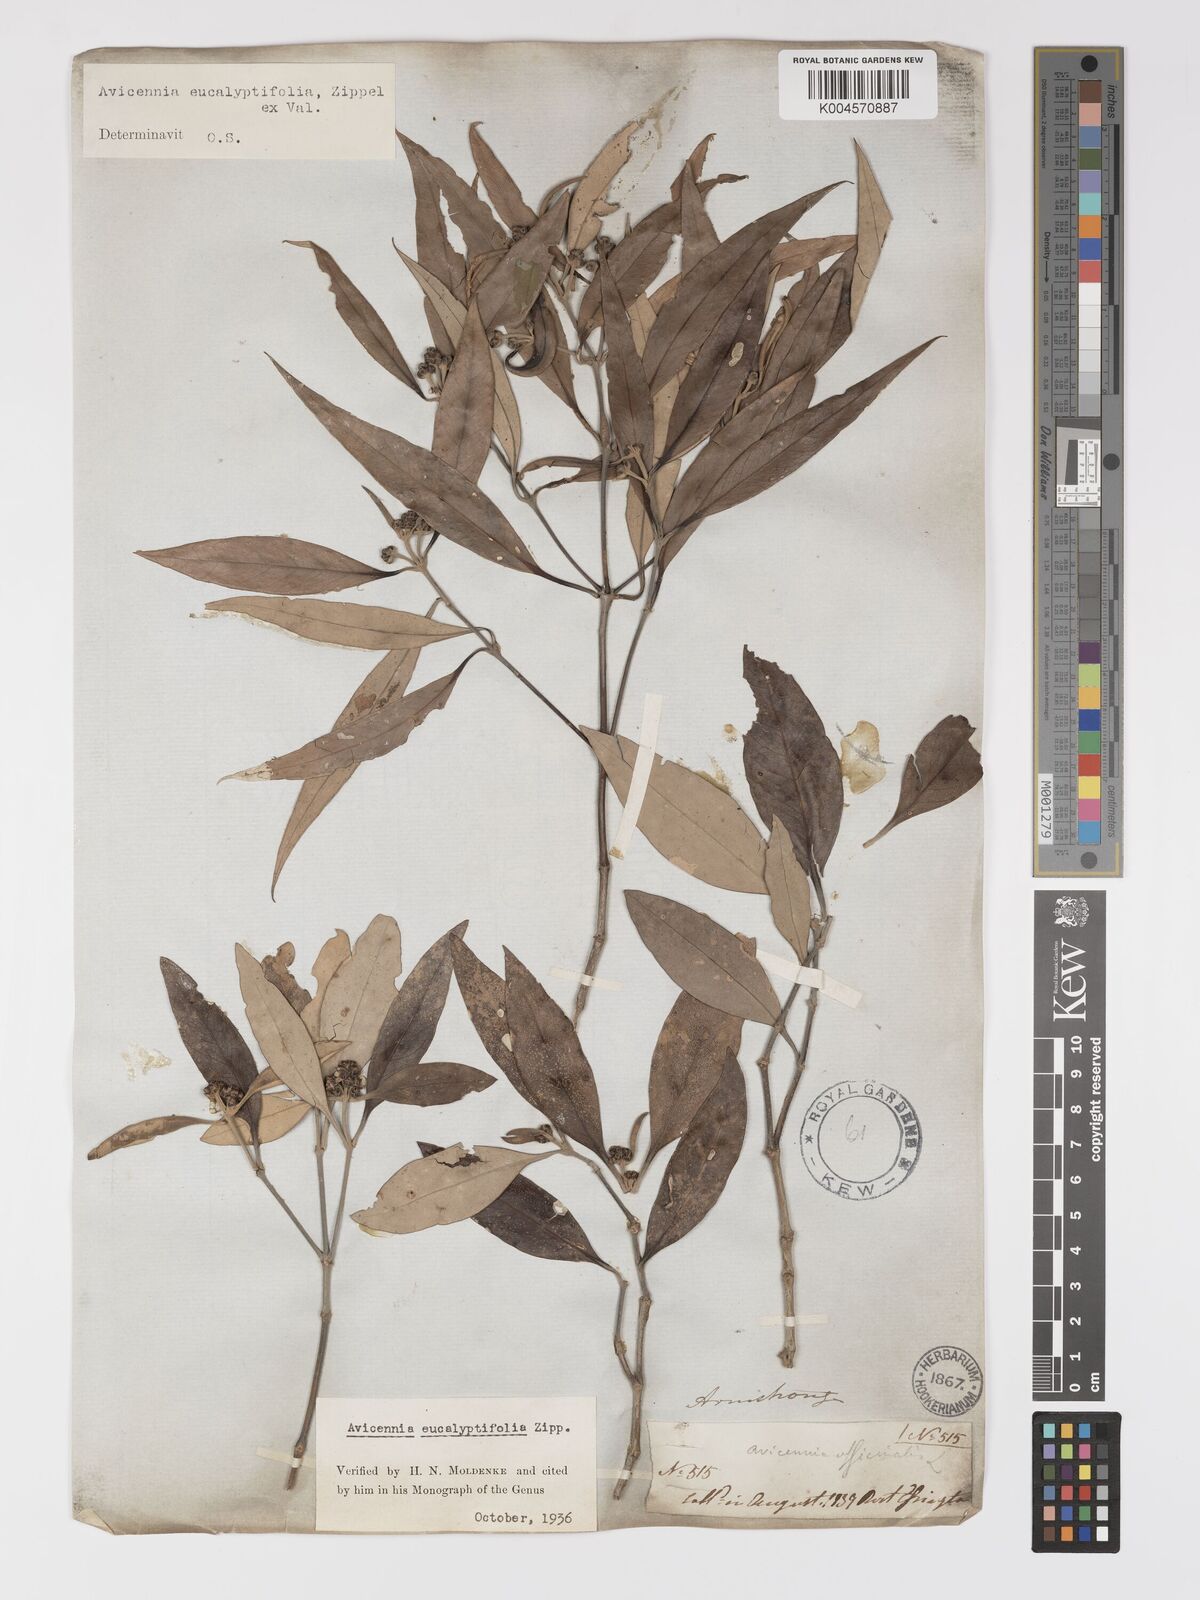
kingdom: Plantae
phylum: Tracheophyta
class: Magnoliopsida
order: Lamiales
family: Acanthaceae
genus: Avicennia
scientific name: Avicennia marina
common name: Gray mangrove
